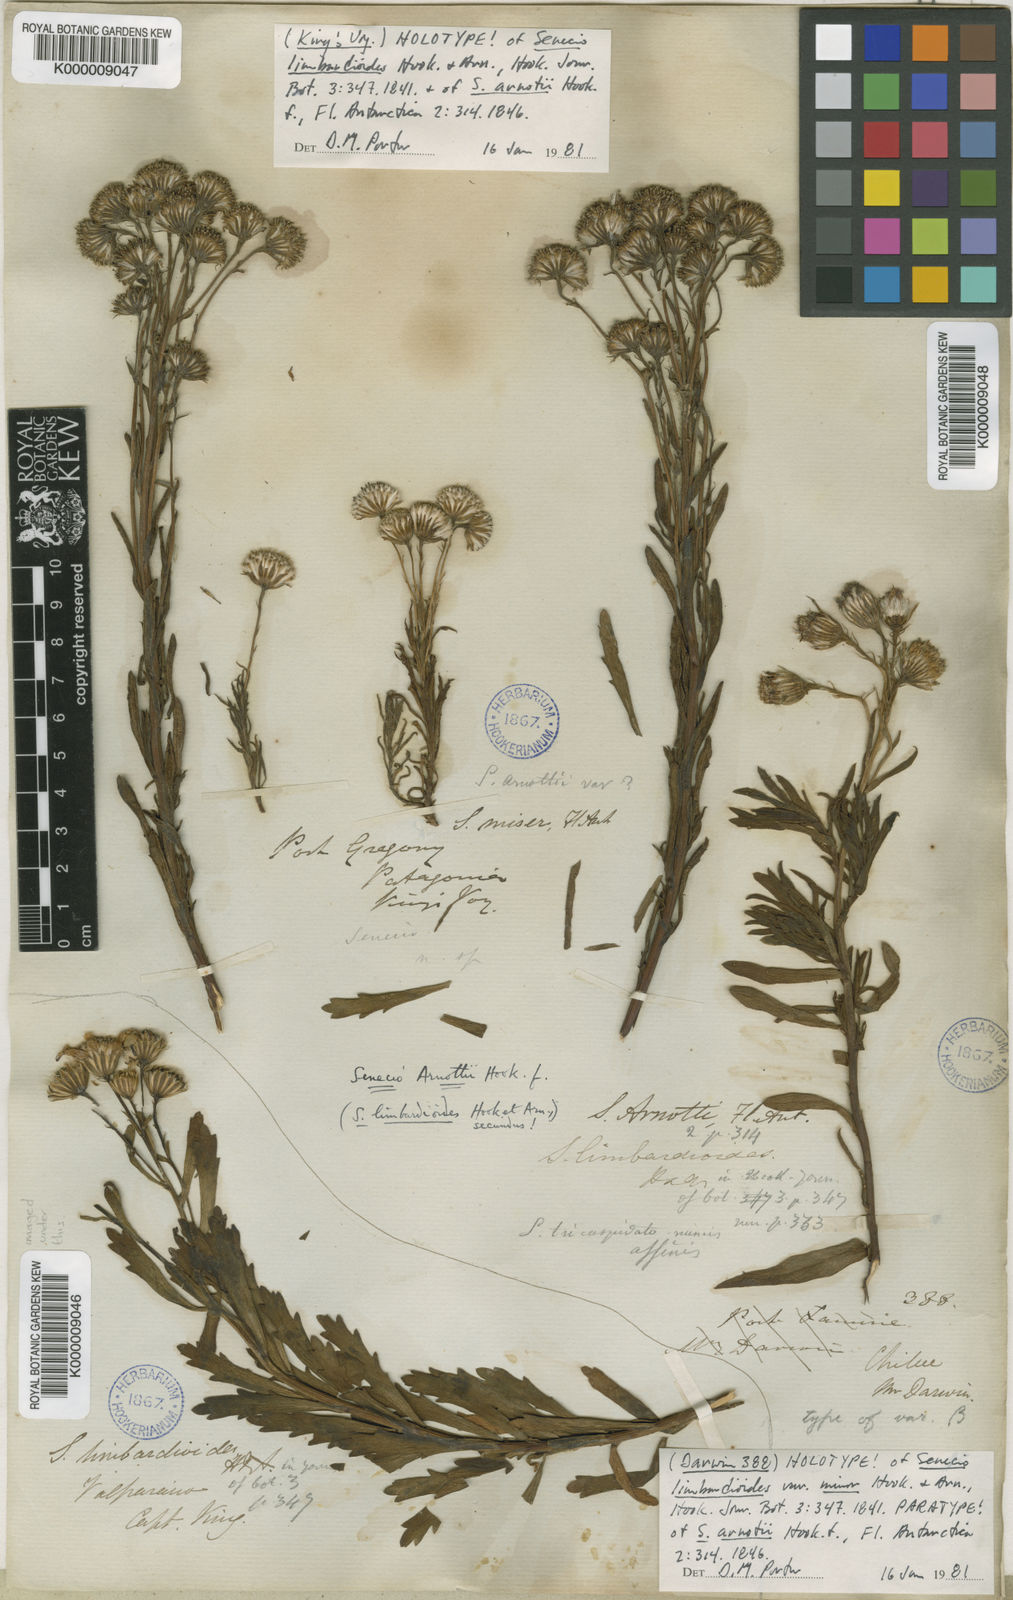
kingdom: Plantae
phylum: Tracheophyta
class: Magnoliopsida
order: Asterales
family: Asteraceae
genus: Senecio
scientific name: Senecio arnottii
